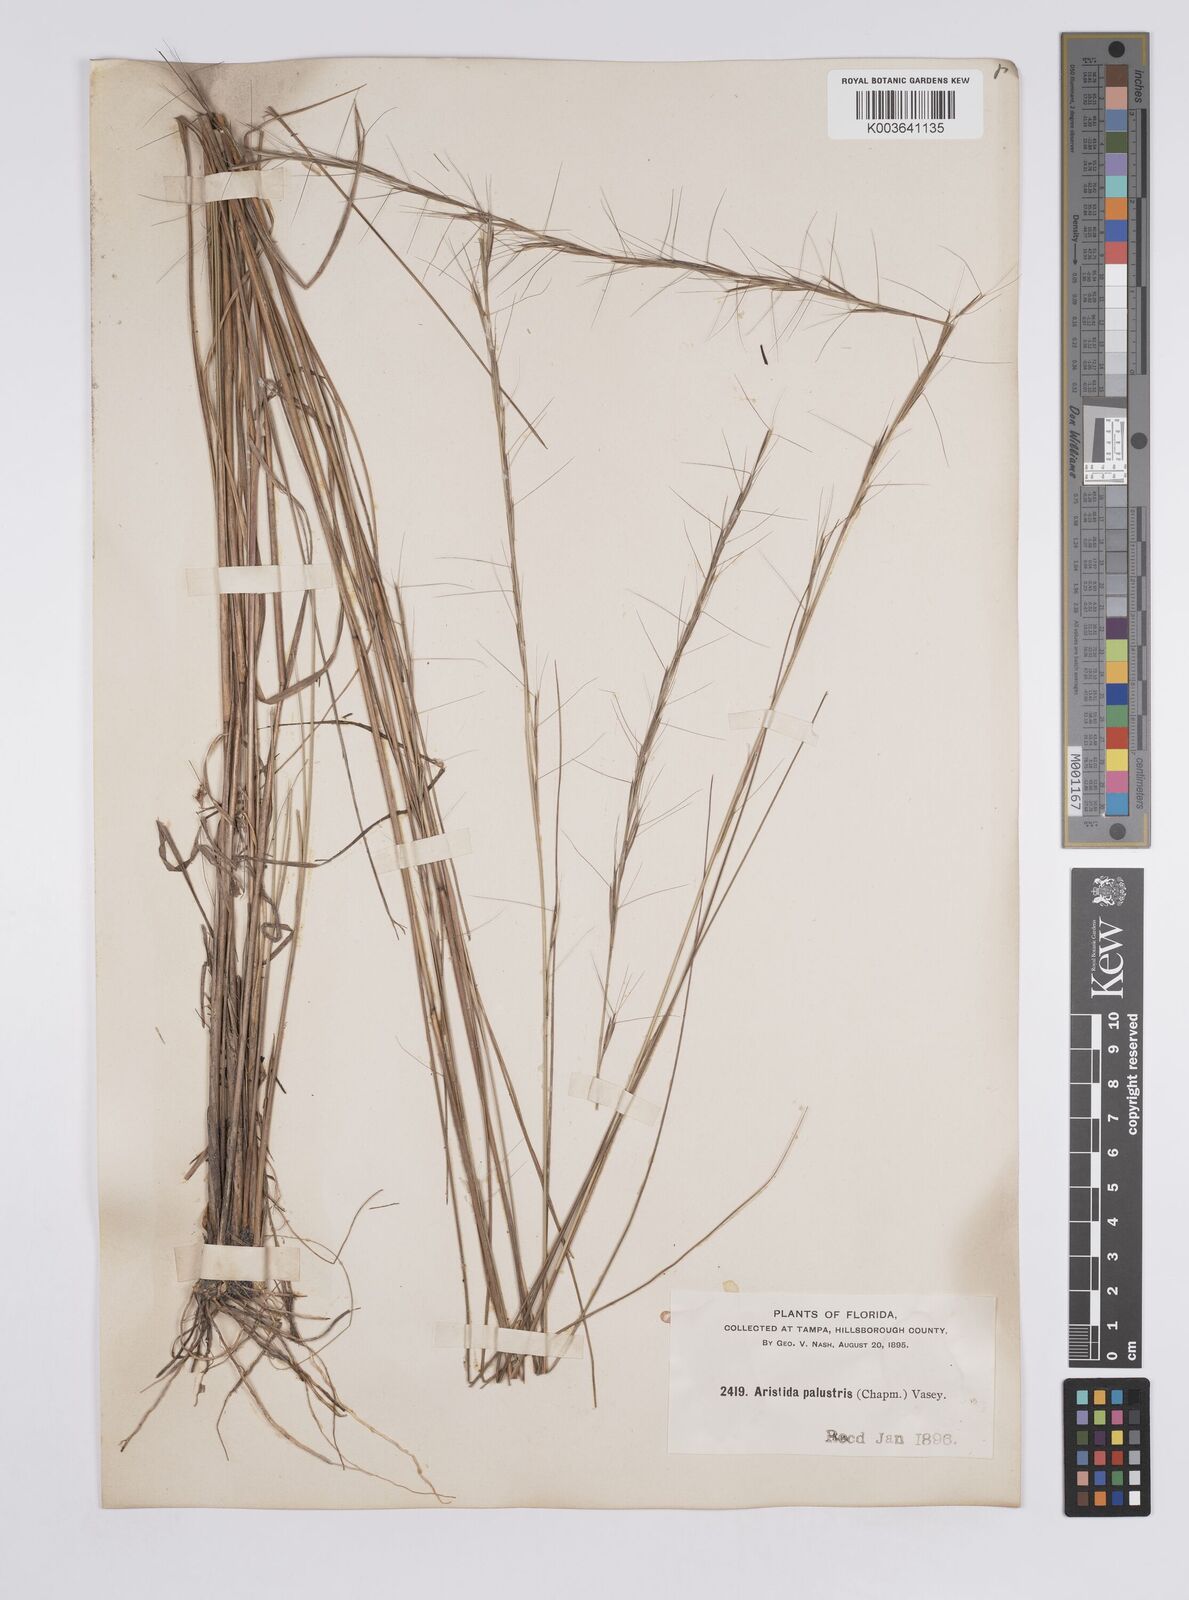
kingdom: Plantae
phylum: Tracheophyta
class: Liliopsida
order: Poales
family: Poaceae
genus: Aristida
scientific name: Aristida palustris
